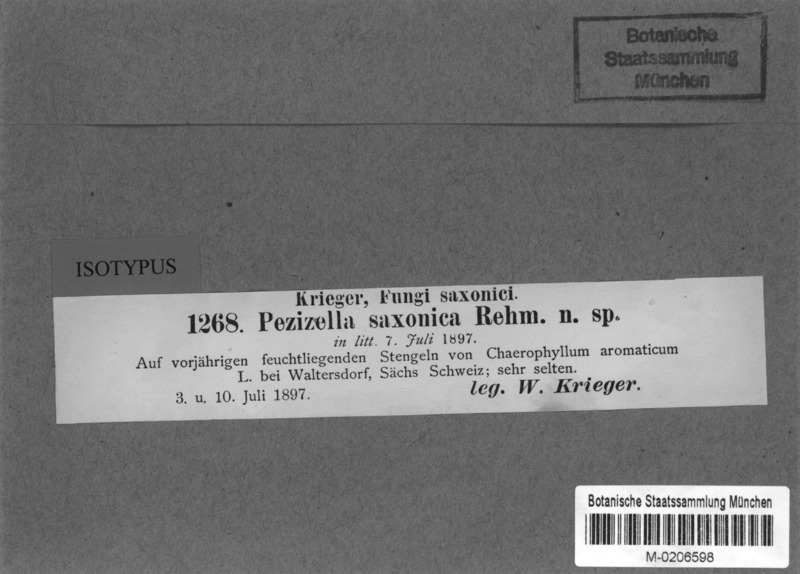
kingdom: Fungi
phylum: Ascomycota
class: Leotiomycetes
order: Helotiales
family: Hyaloscyphaceae
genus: Urceolella
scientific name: Urceolella saxonica
